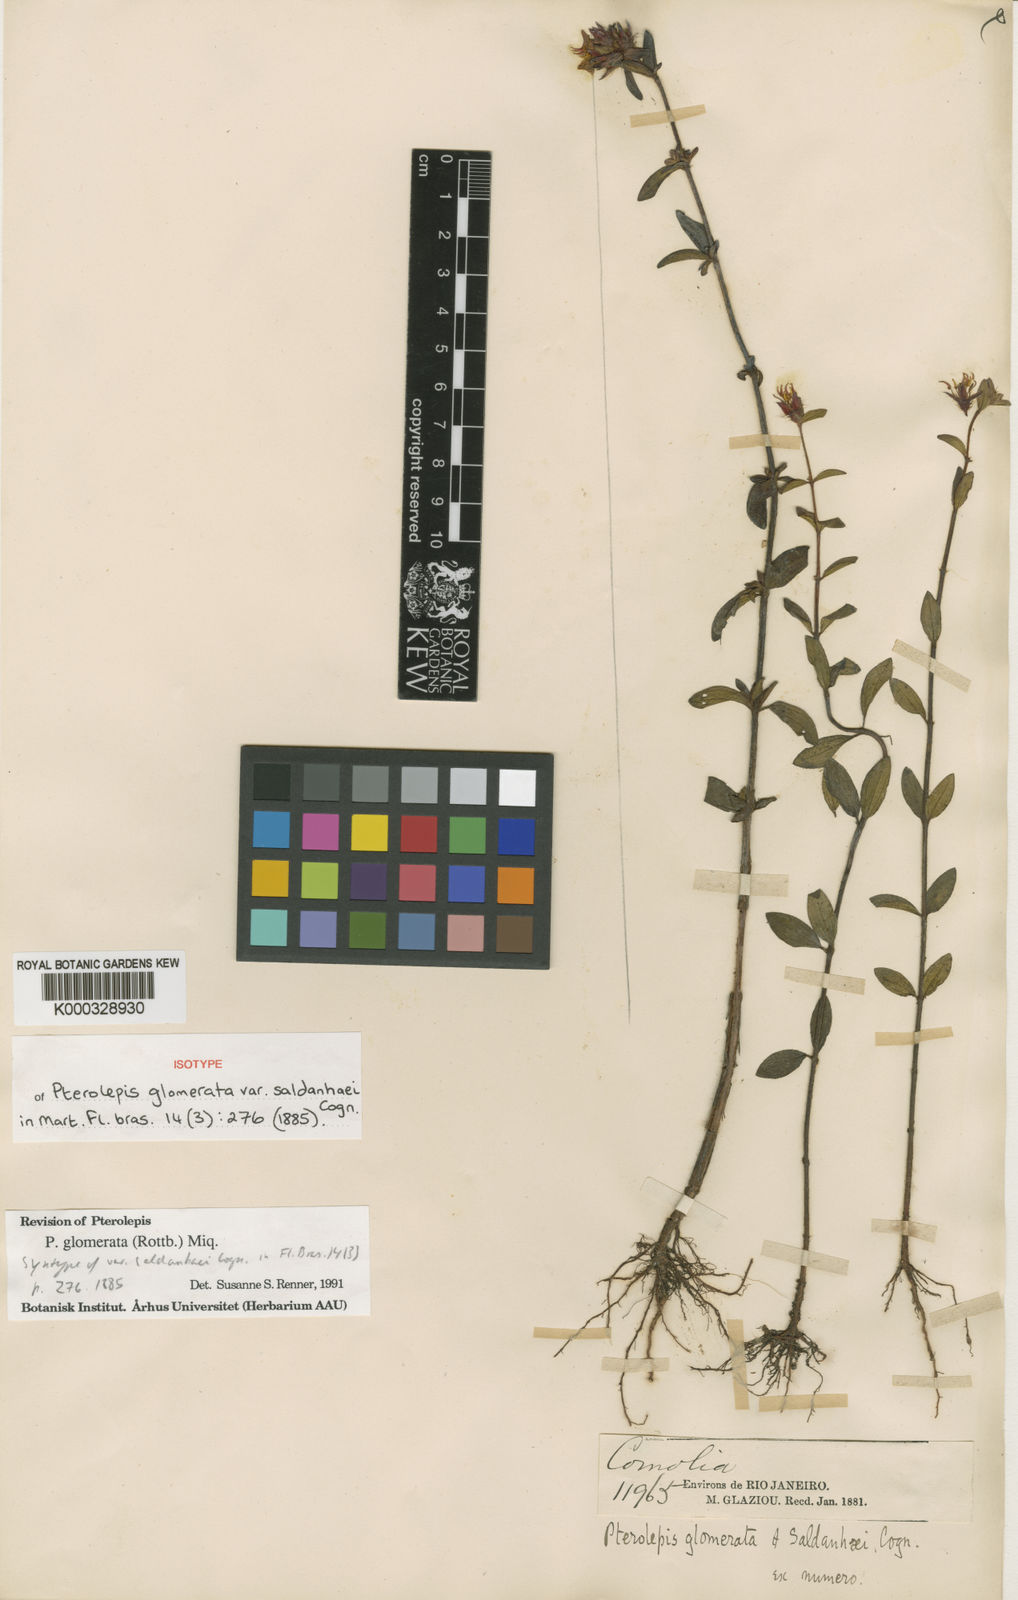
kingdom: Plantae
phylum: Tracheophyta
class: Magnoliopsida
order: Myrtales
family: Melastomataceae
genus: Pterolepis
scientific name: Pterolepis glomerata
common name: False meadowbeauty
